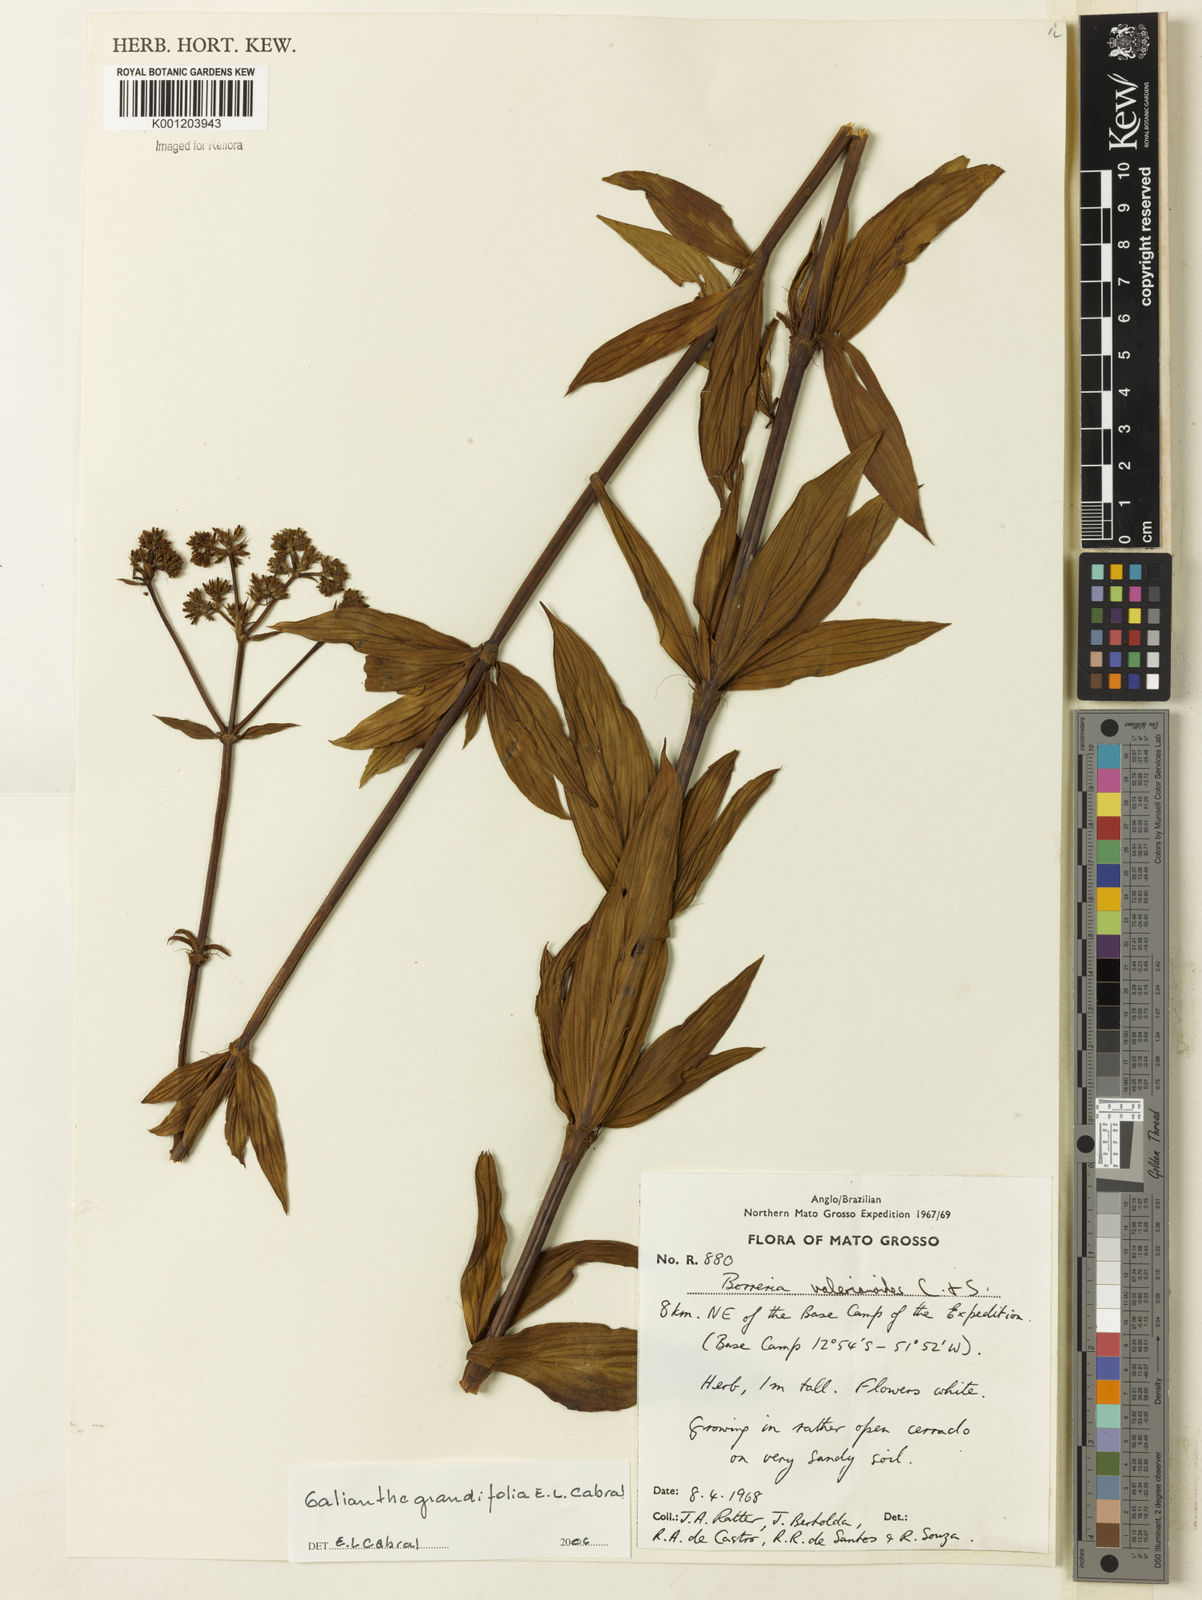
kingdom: Plantae
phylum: Tracheophyta
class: Magnoliopsida
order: Gentianales
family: Rubiaceae
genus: Galianthe
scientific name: Galianthe grandifolia
